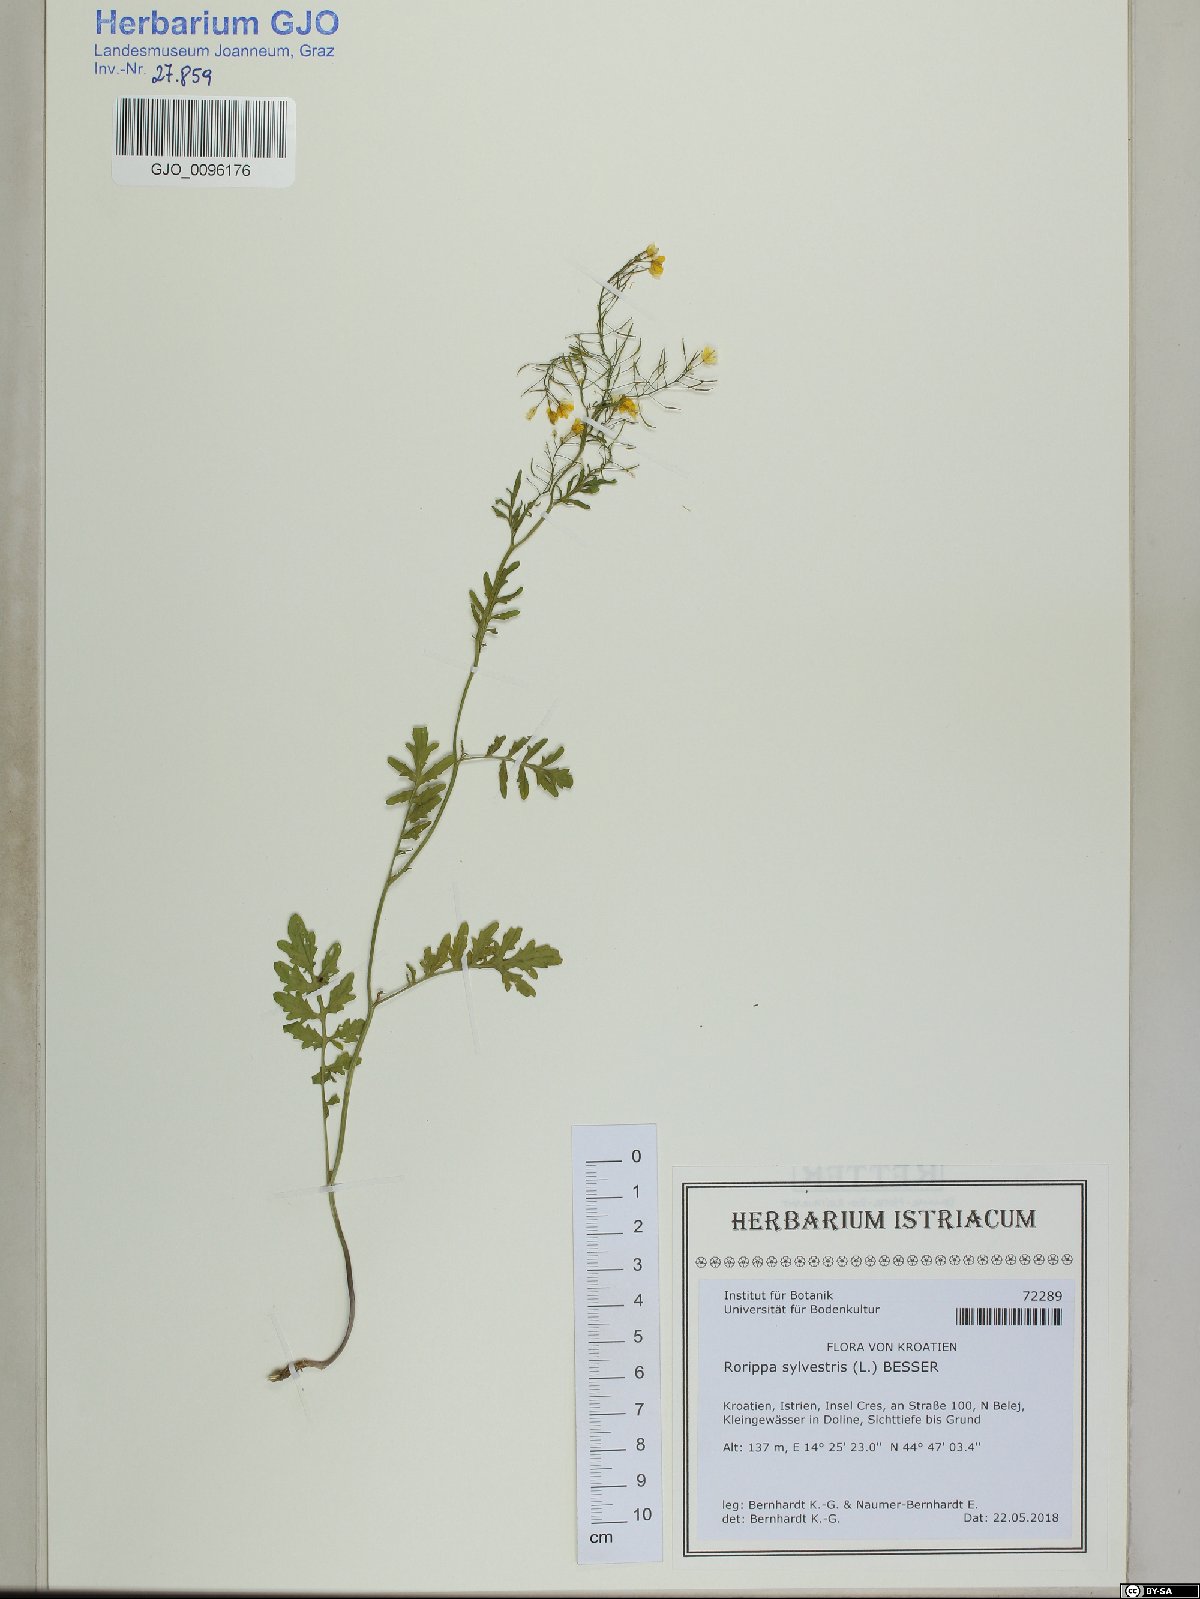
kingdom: Plantae
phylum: Tracheophyta
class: Magnoliopsida
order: Brassicales
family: Brassicaceae
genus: Rorippa
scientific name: Rorippa sylvestris
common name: Creeping yellowcress
